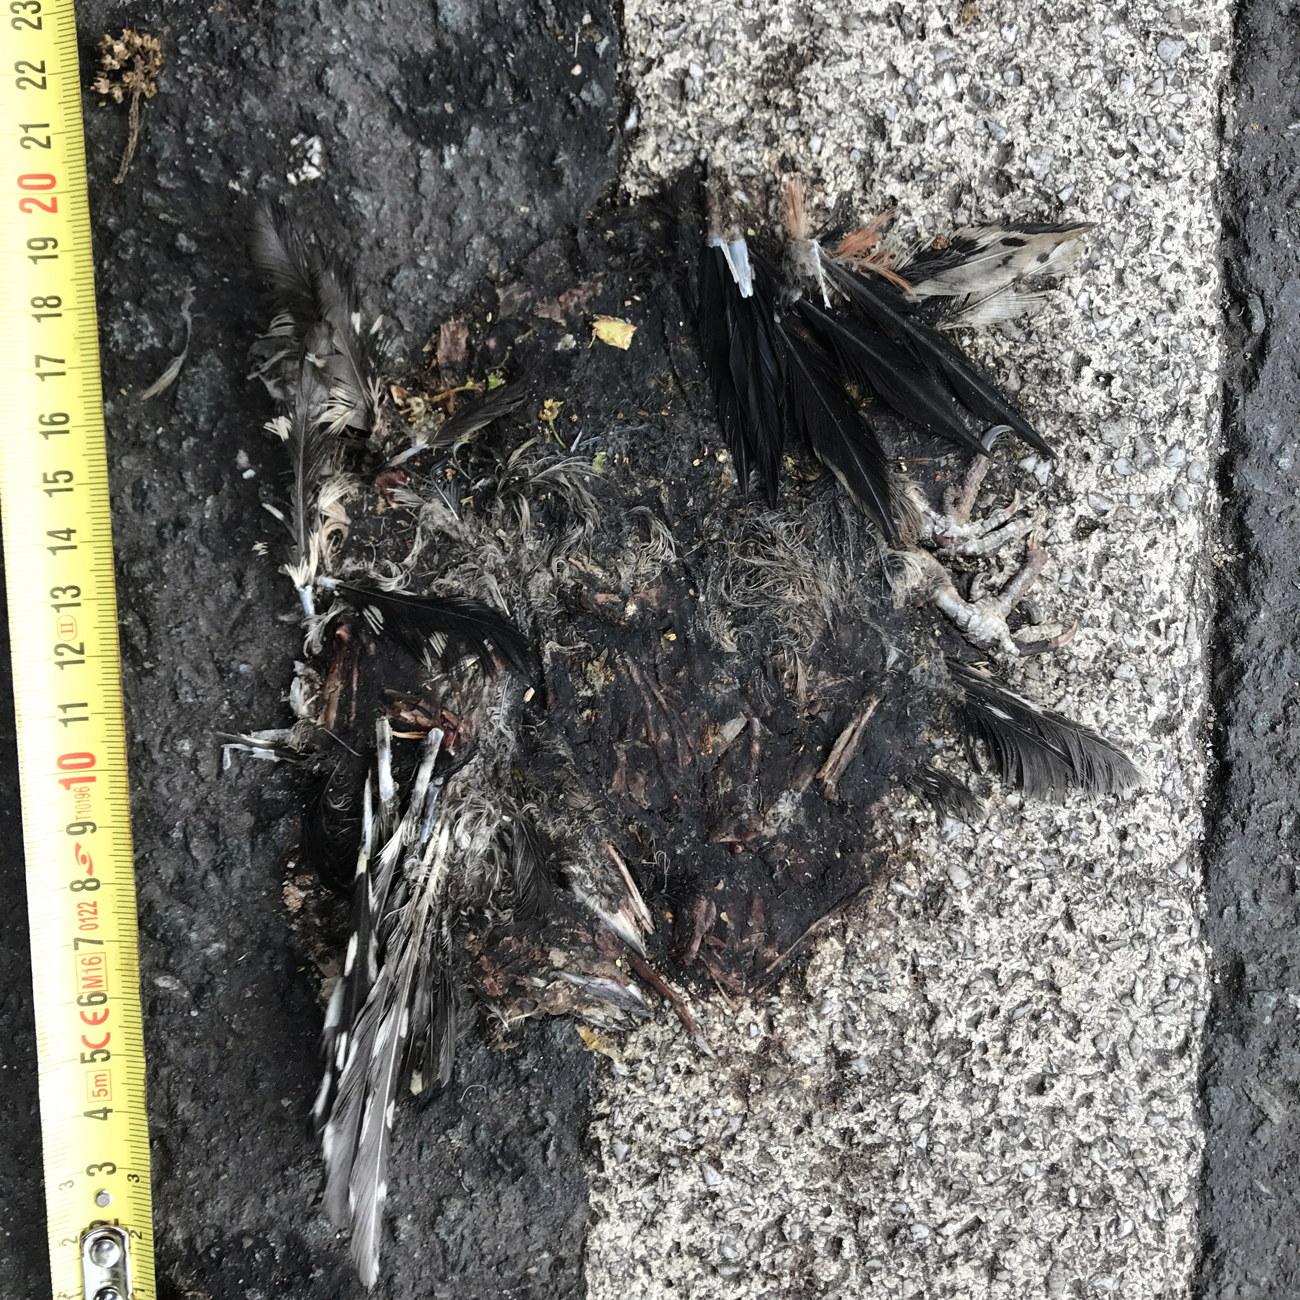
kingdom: Animalia
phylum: Chordata
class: Aves
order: Piciformes
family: Picidae
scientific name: Picidae
